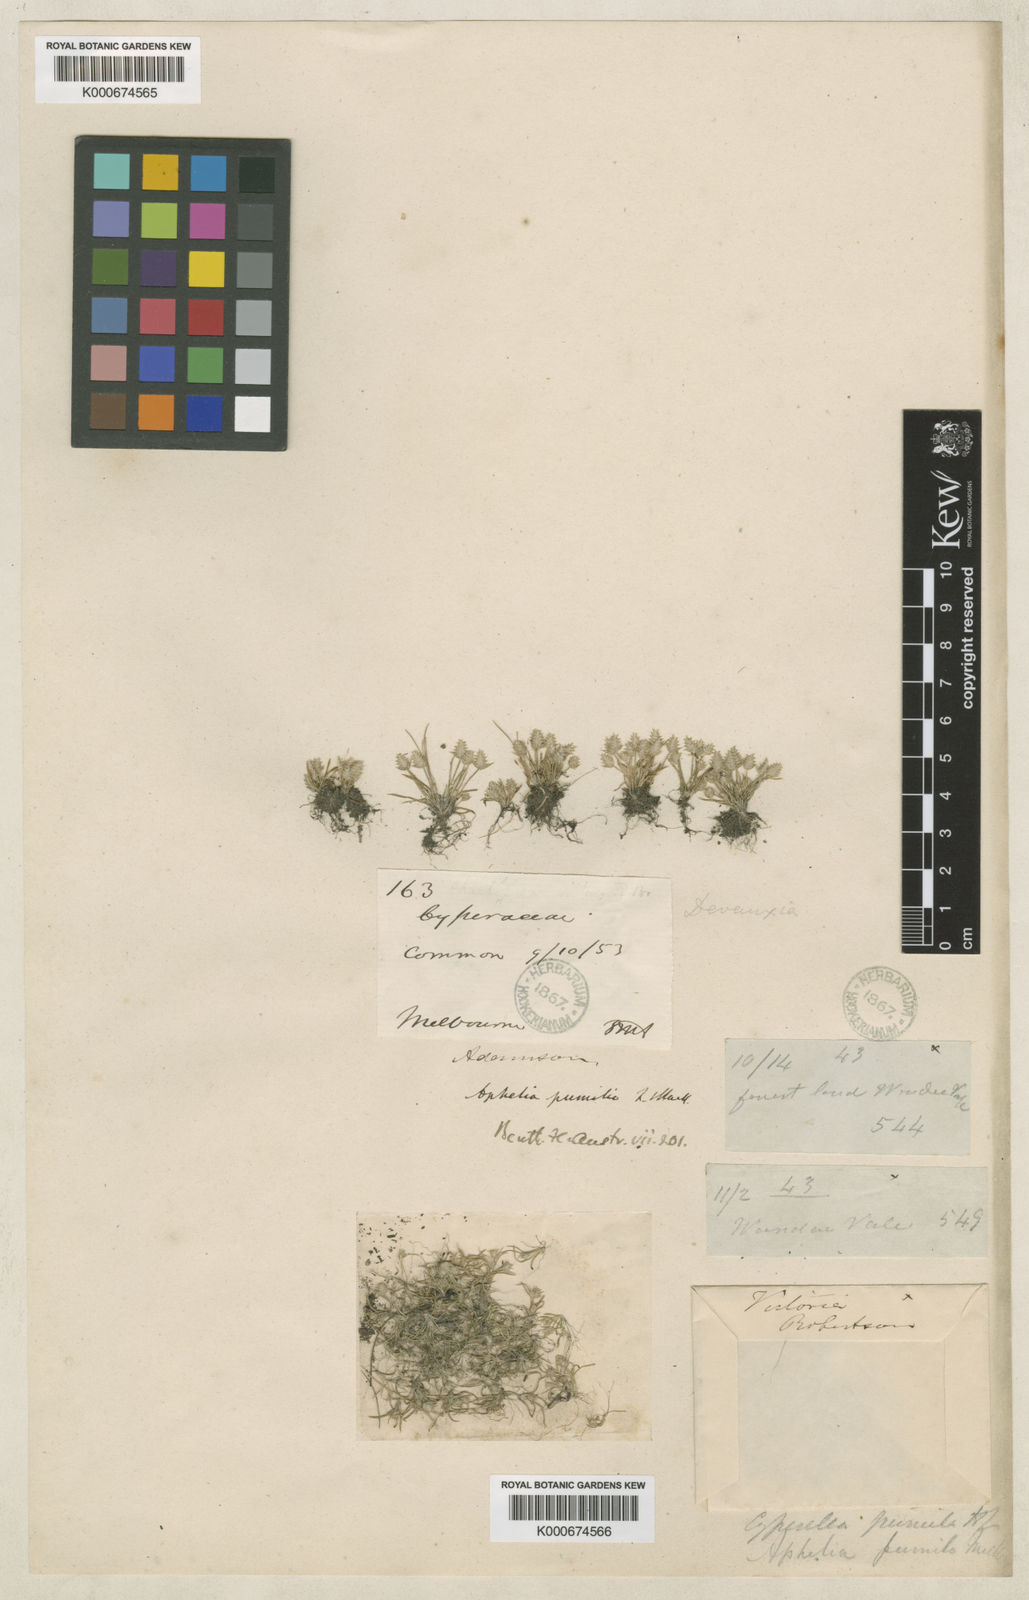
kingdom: Plantae
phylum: Tracheophyta
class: Liliopsida
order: Poales
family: Restionaceae
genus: Aphelia
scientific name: Aphelia pumilio
